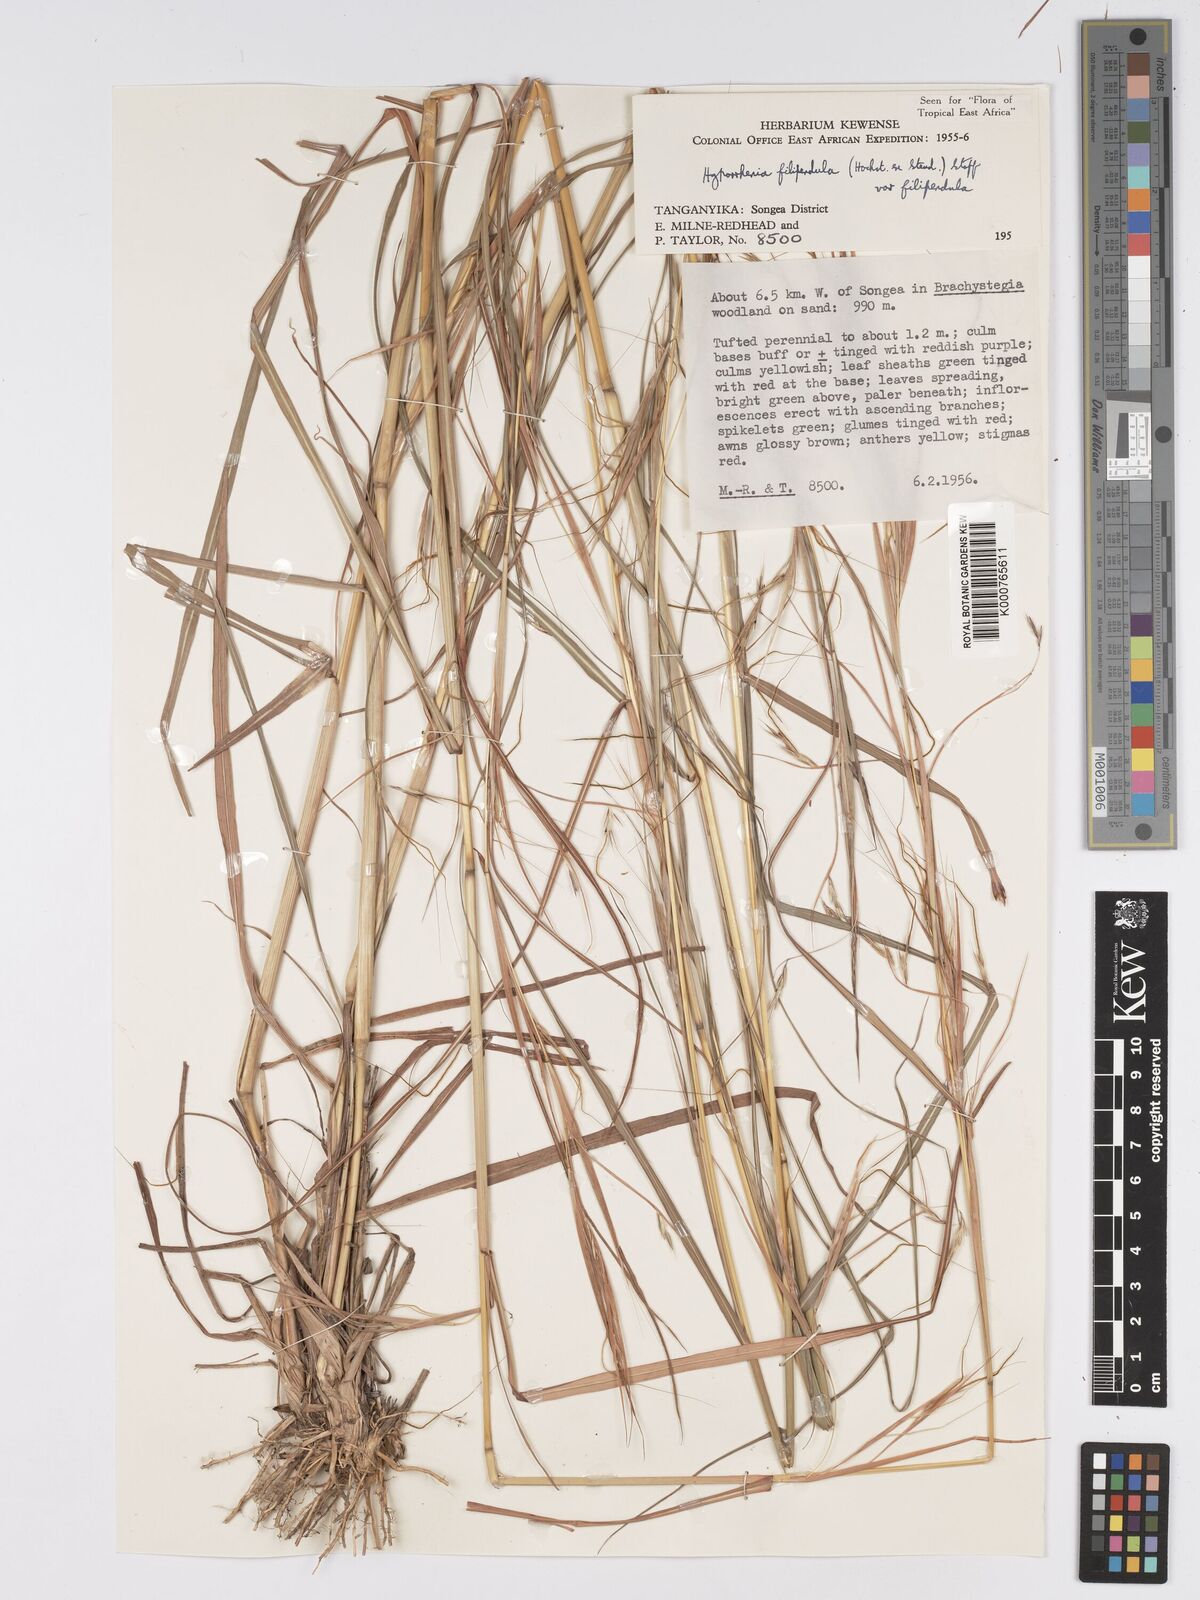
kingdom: Plantae
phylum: Tracheophyta
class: Liliopsida
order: Poales
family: Poaceae
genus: Hyparrhenia
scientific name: Hyparrhenia filipendula
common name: Tambookie grass
